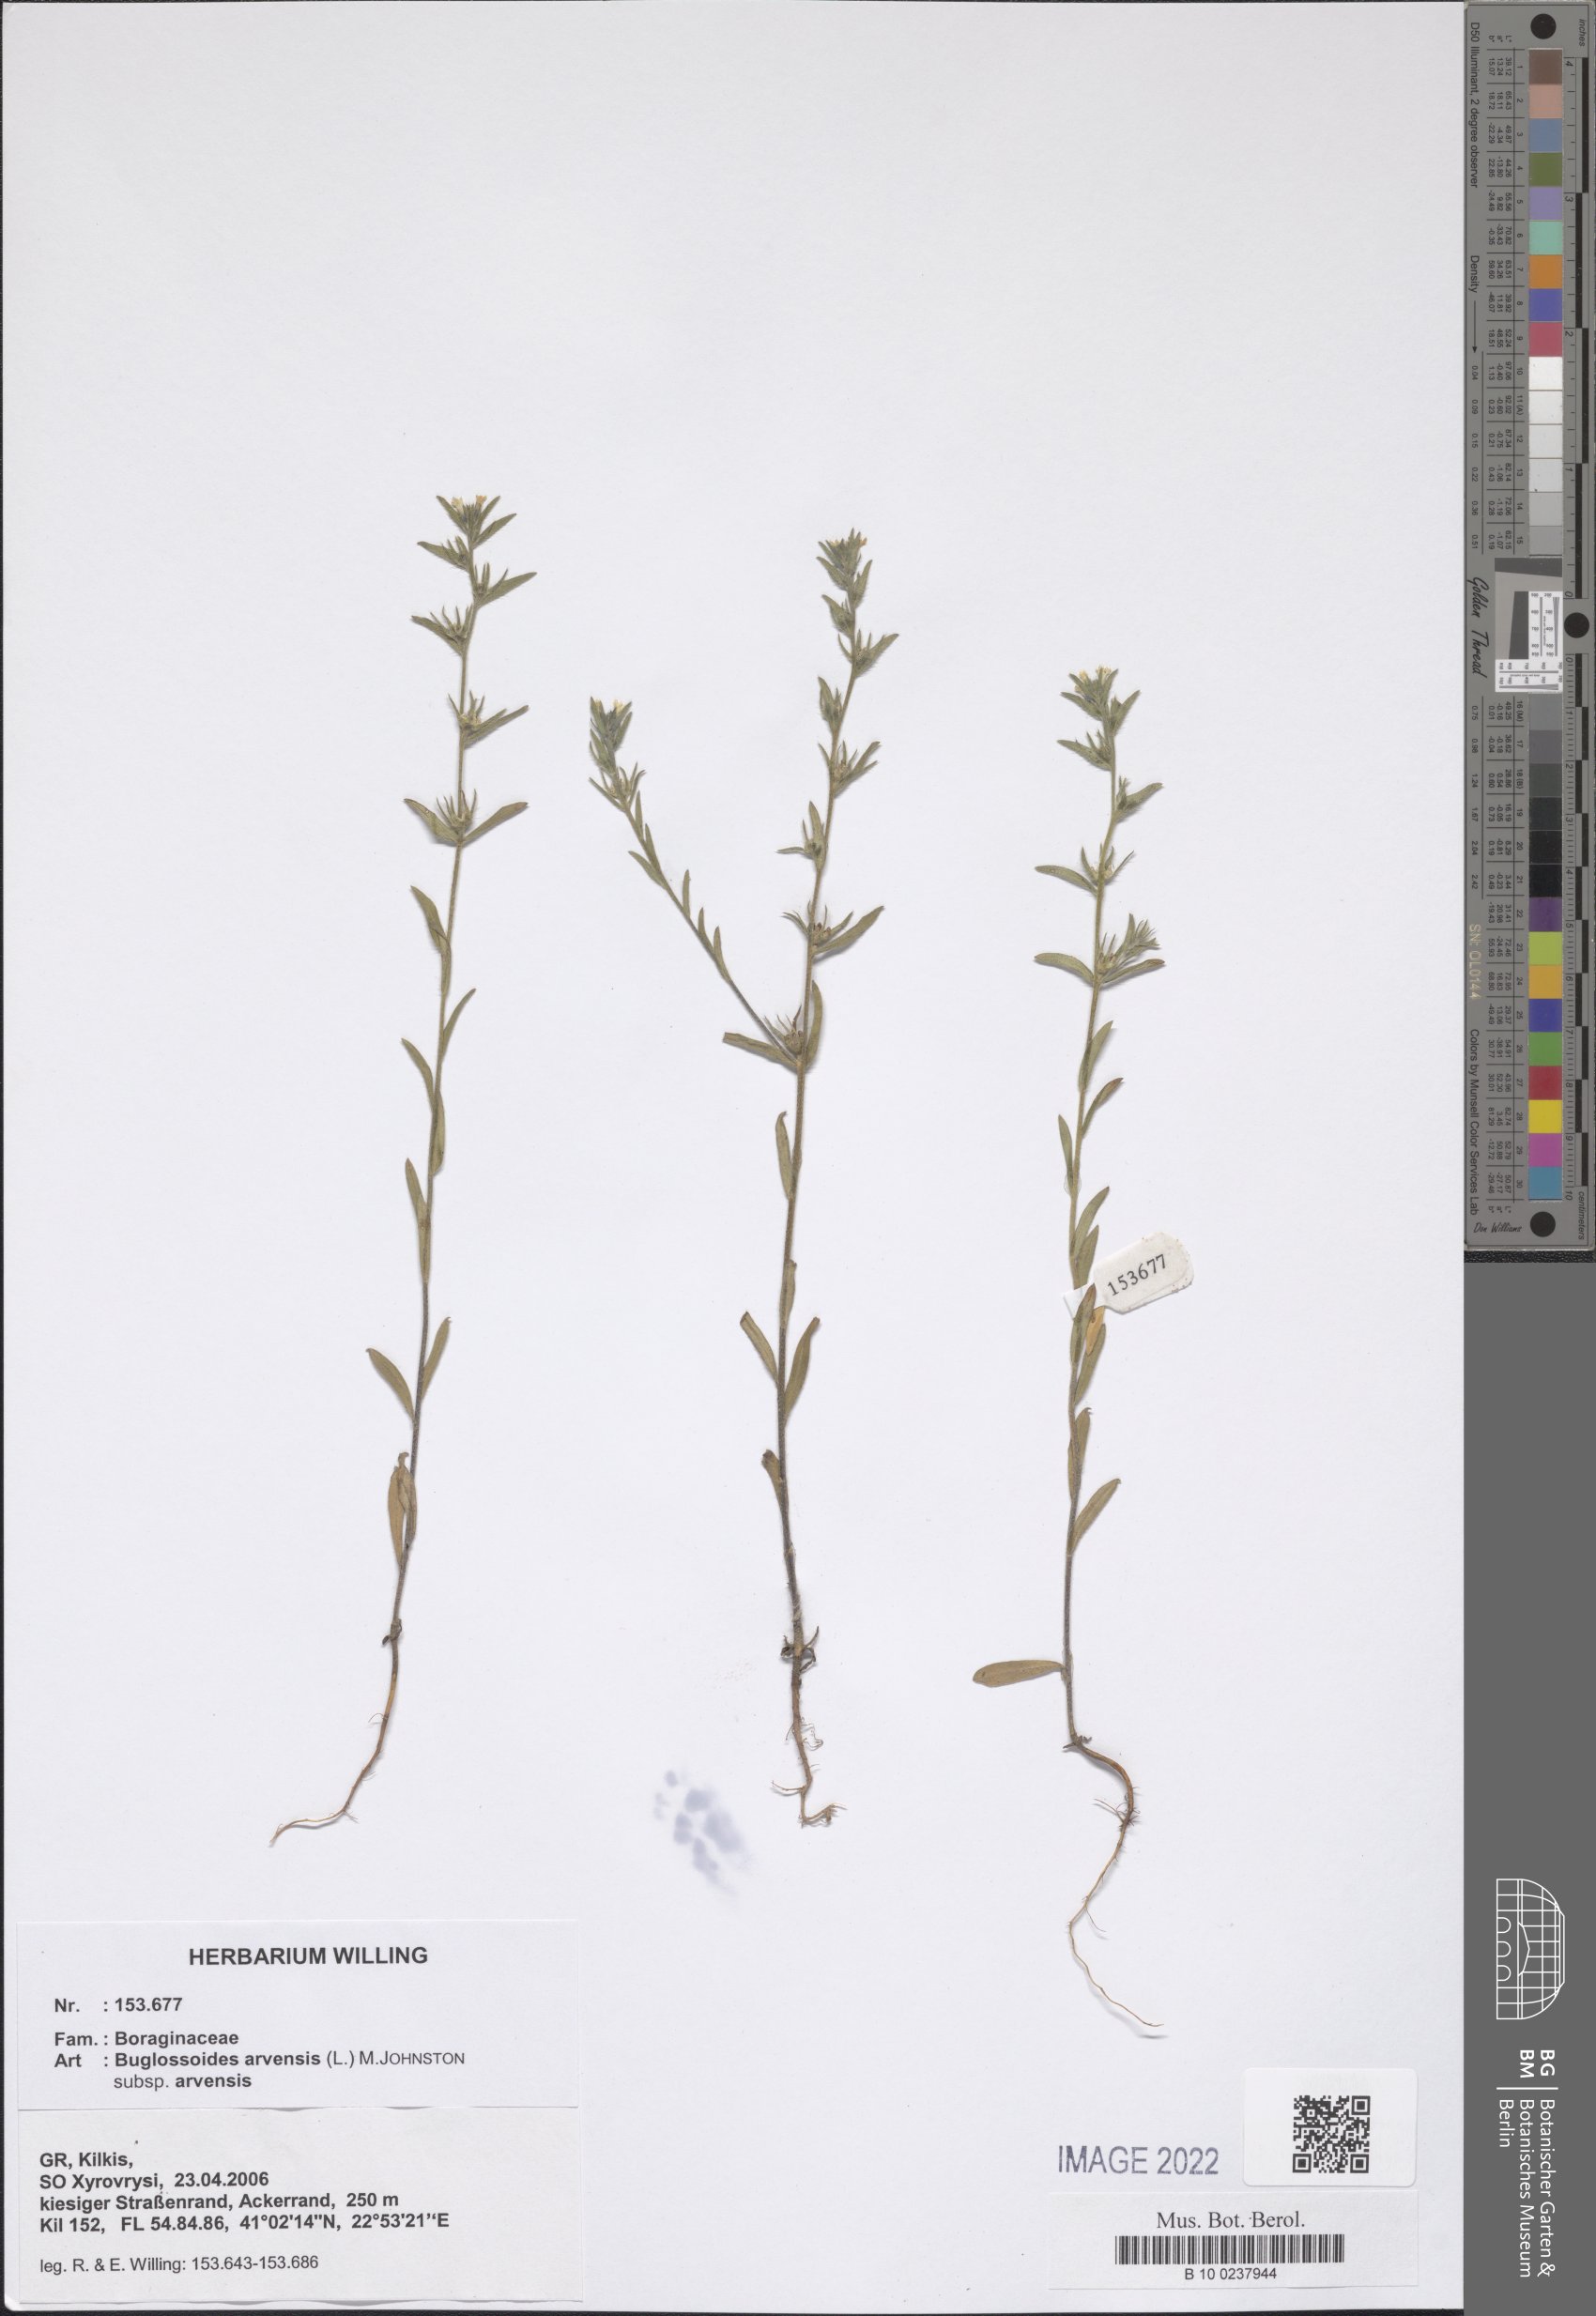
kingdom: Plantae
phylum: Tracheophyta
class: Magnoliopsida
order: Boraginales
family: Boraginaceae
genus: Buglossoides
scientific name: Buglossoides arvensis
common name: Corn gromwell
